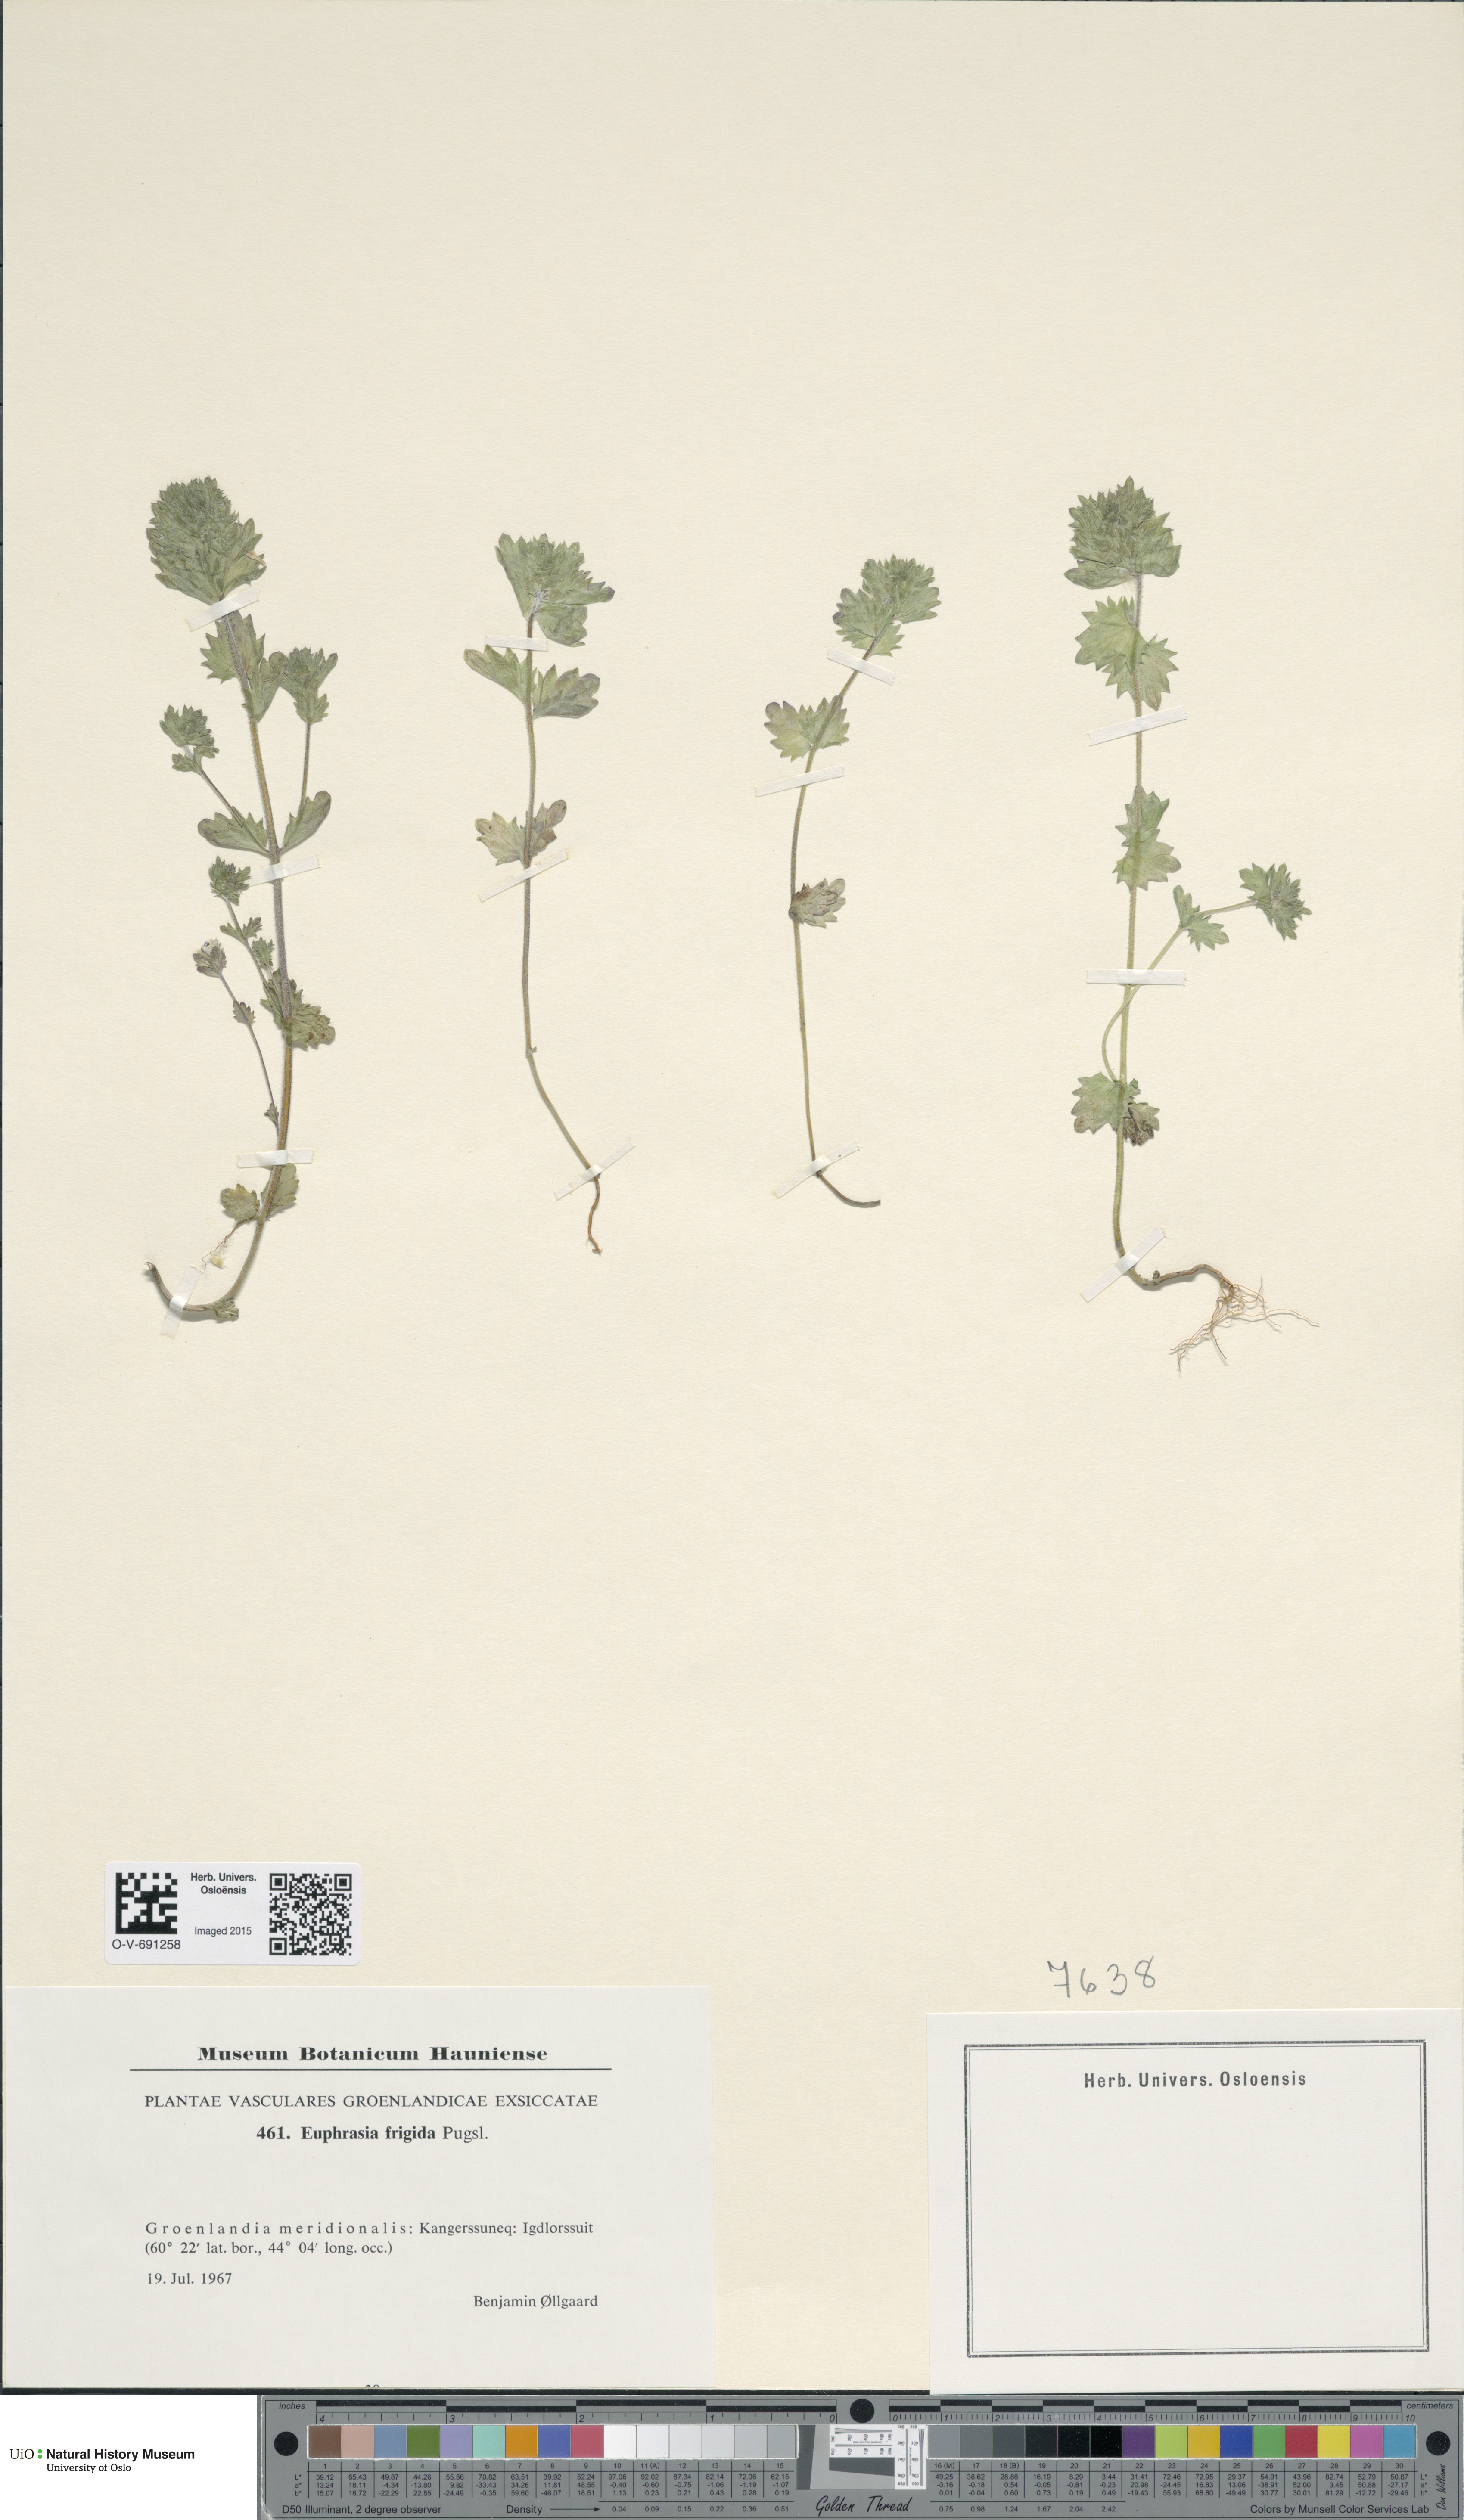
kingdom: Plantae
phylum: Tracheophyta
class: Magnoliopsida
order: Lamiales
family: Orobanchaceae
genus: Euphrasia
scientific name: Euphrasia wettsteinii
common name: Wettstein's eyebright
